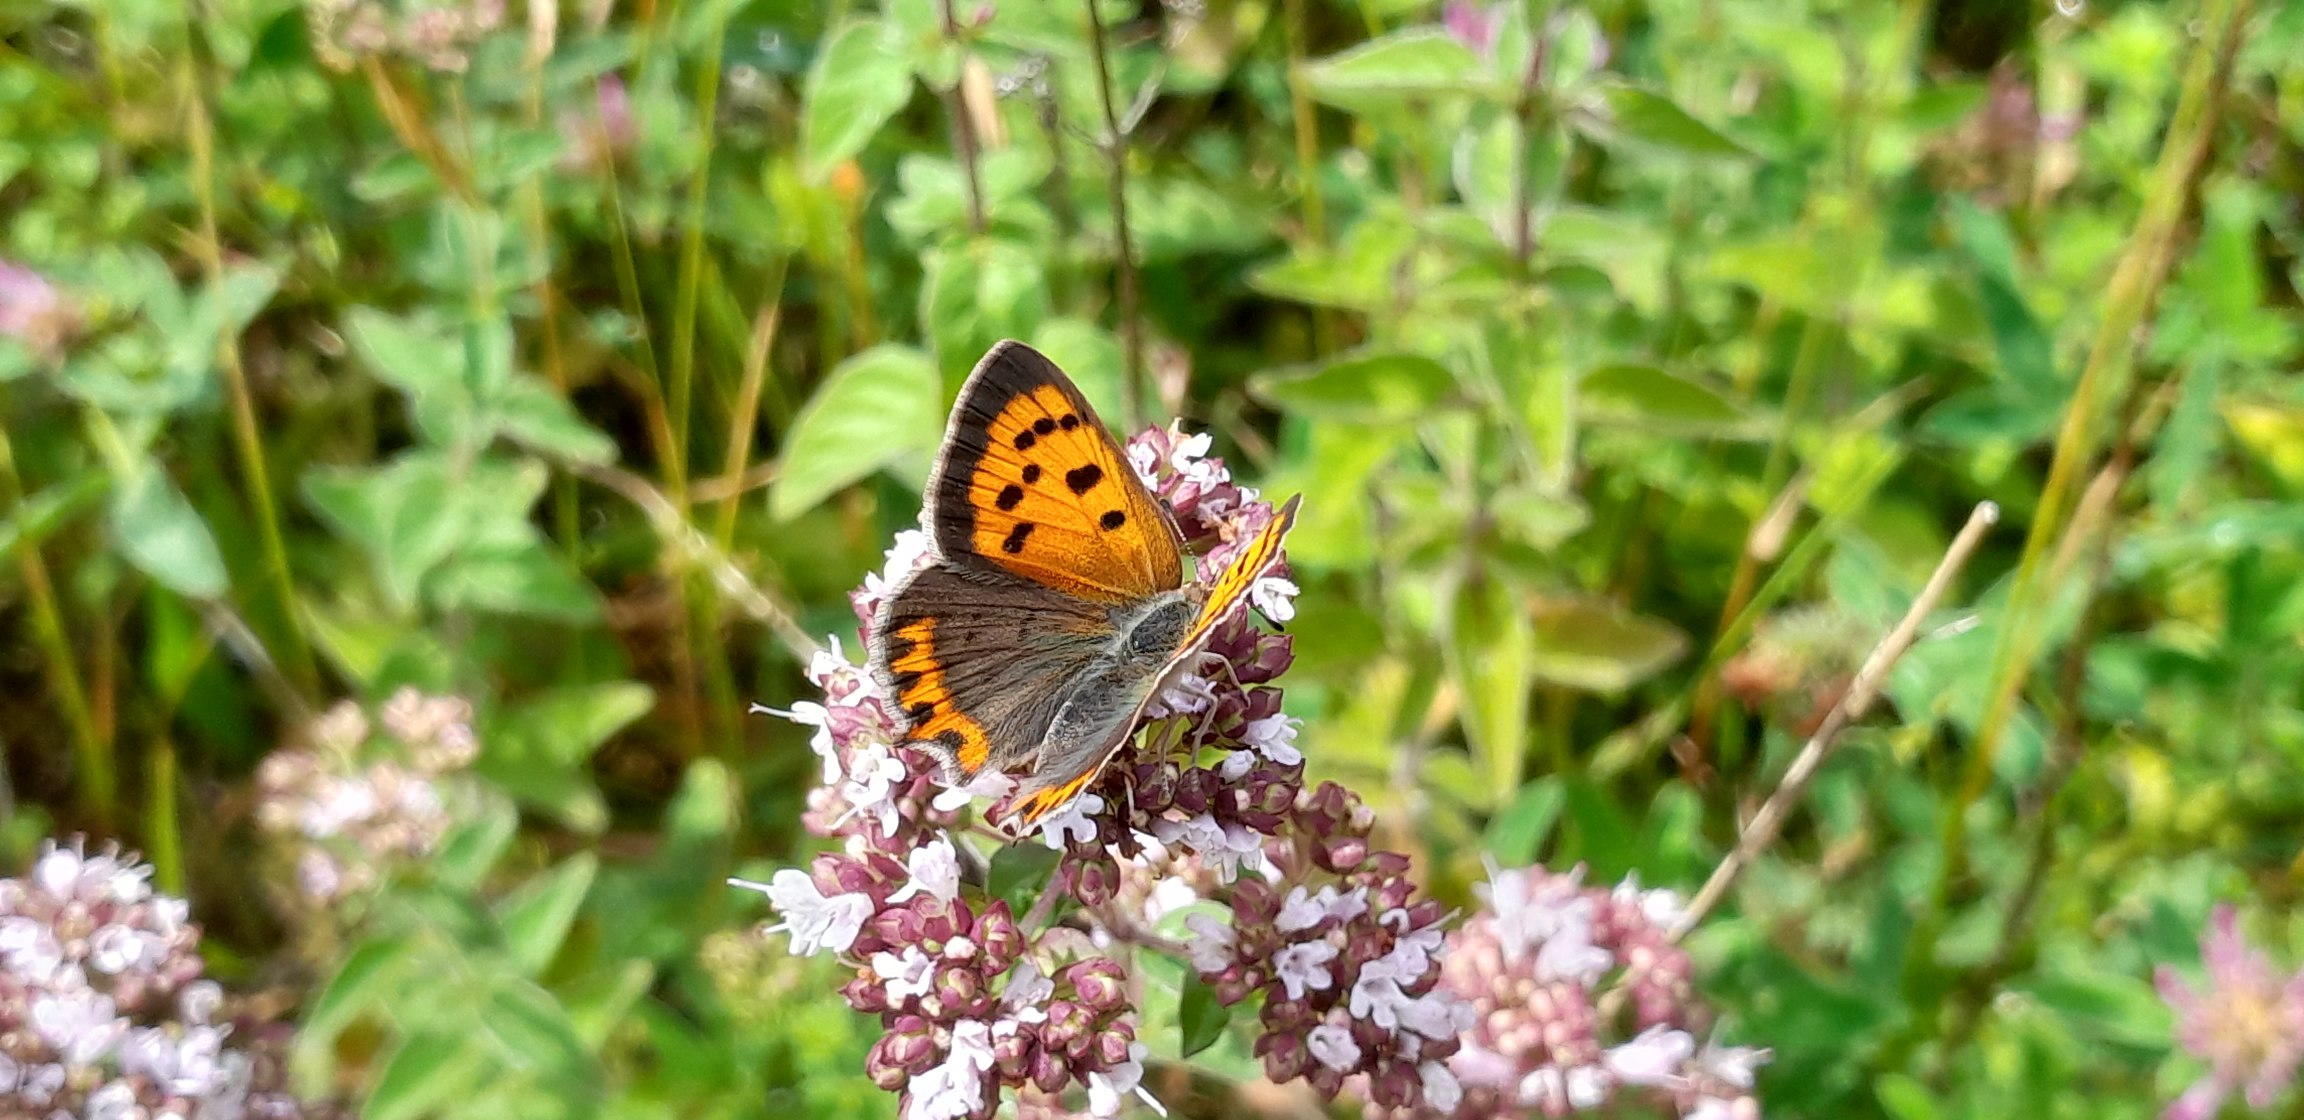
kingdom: Animalia
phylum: Arthropoda
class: Insecta
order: Lepidoptera
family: Lycaenidae
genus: Lycaena
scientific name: Lycaena phlaeas
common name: Lille ildfugl
